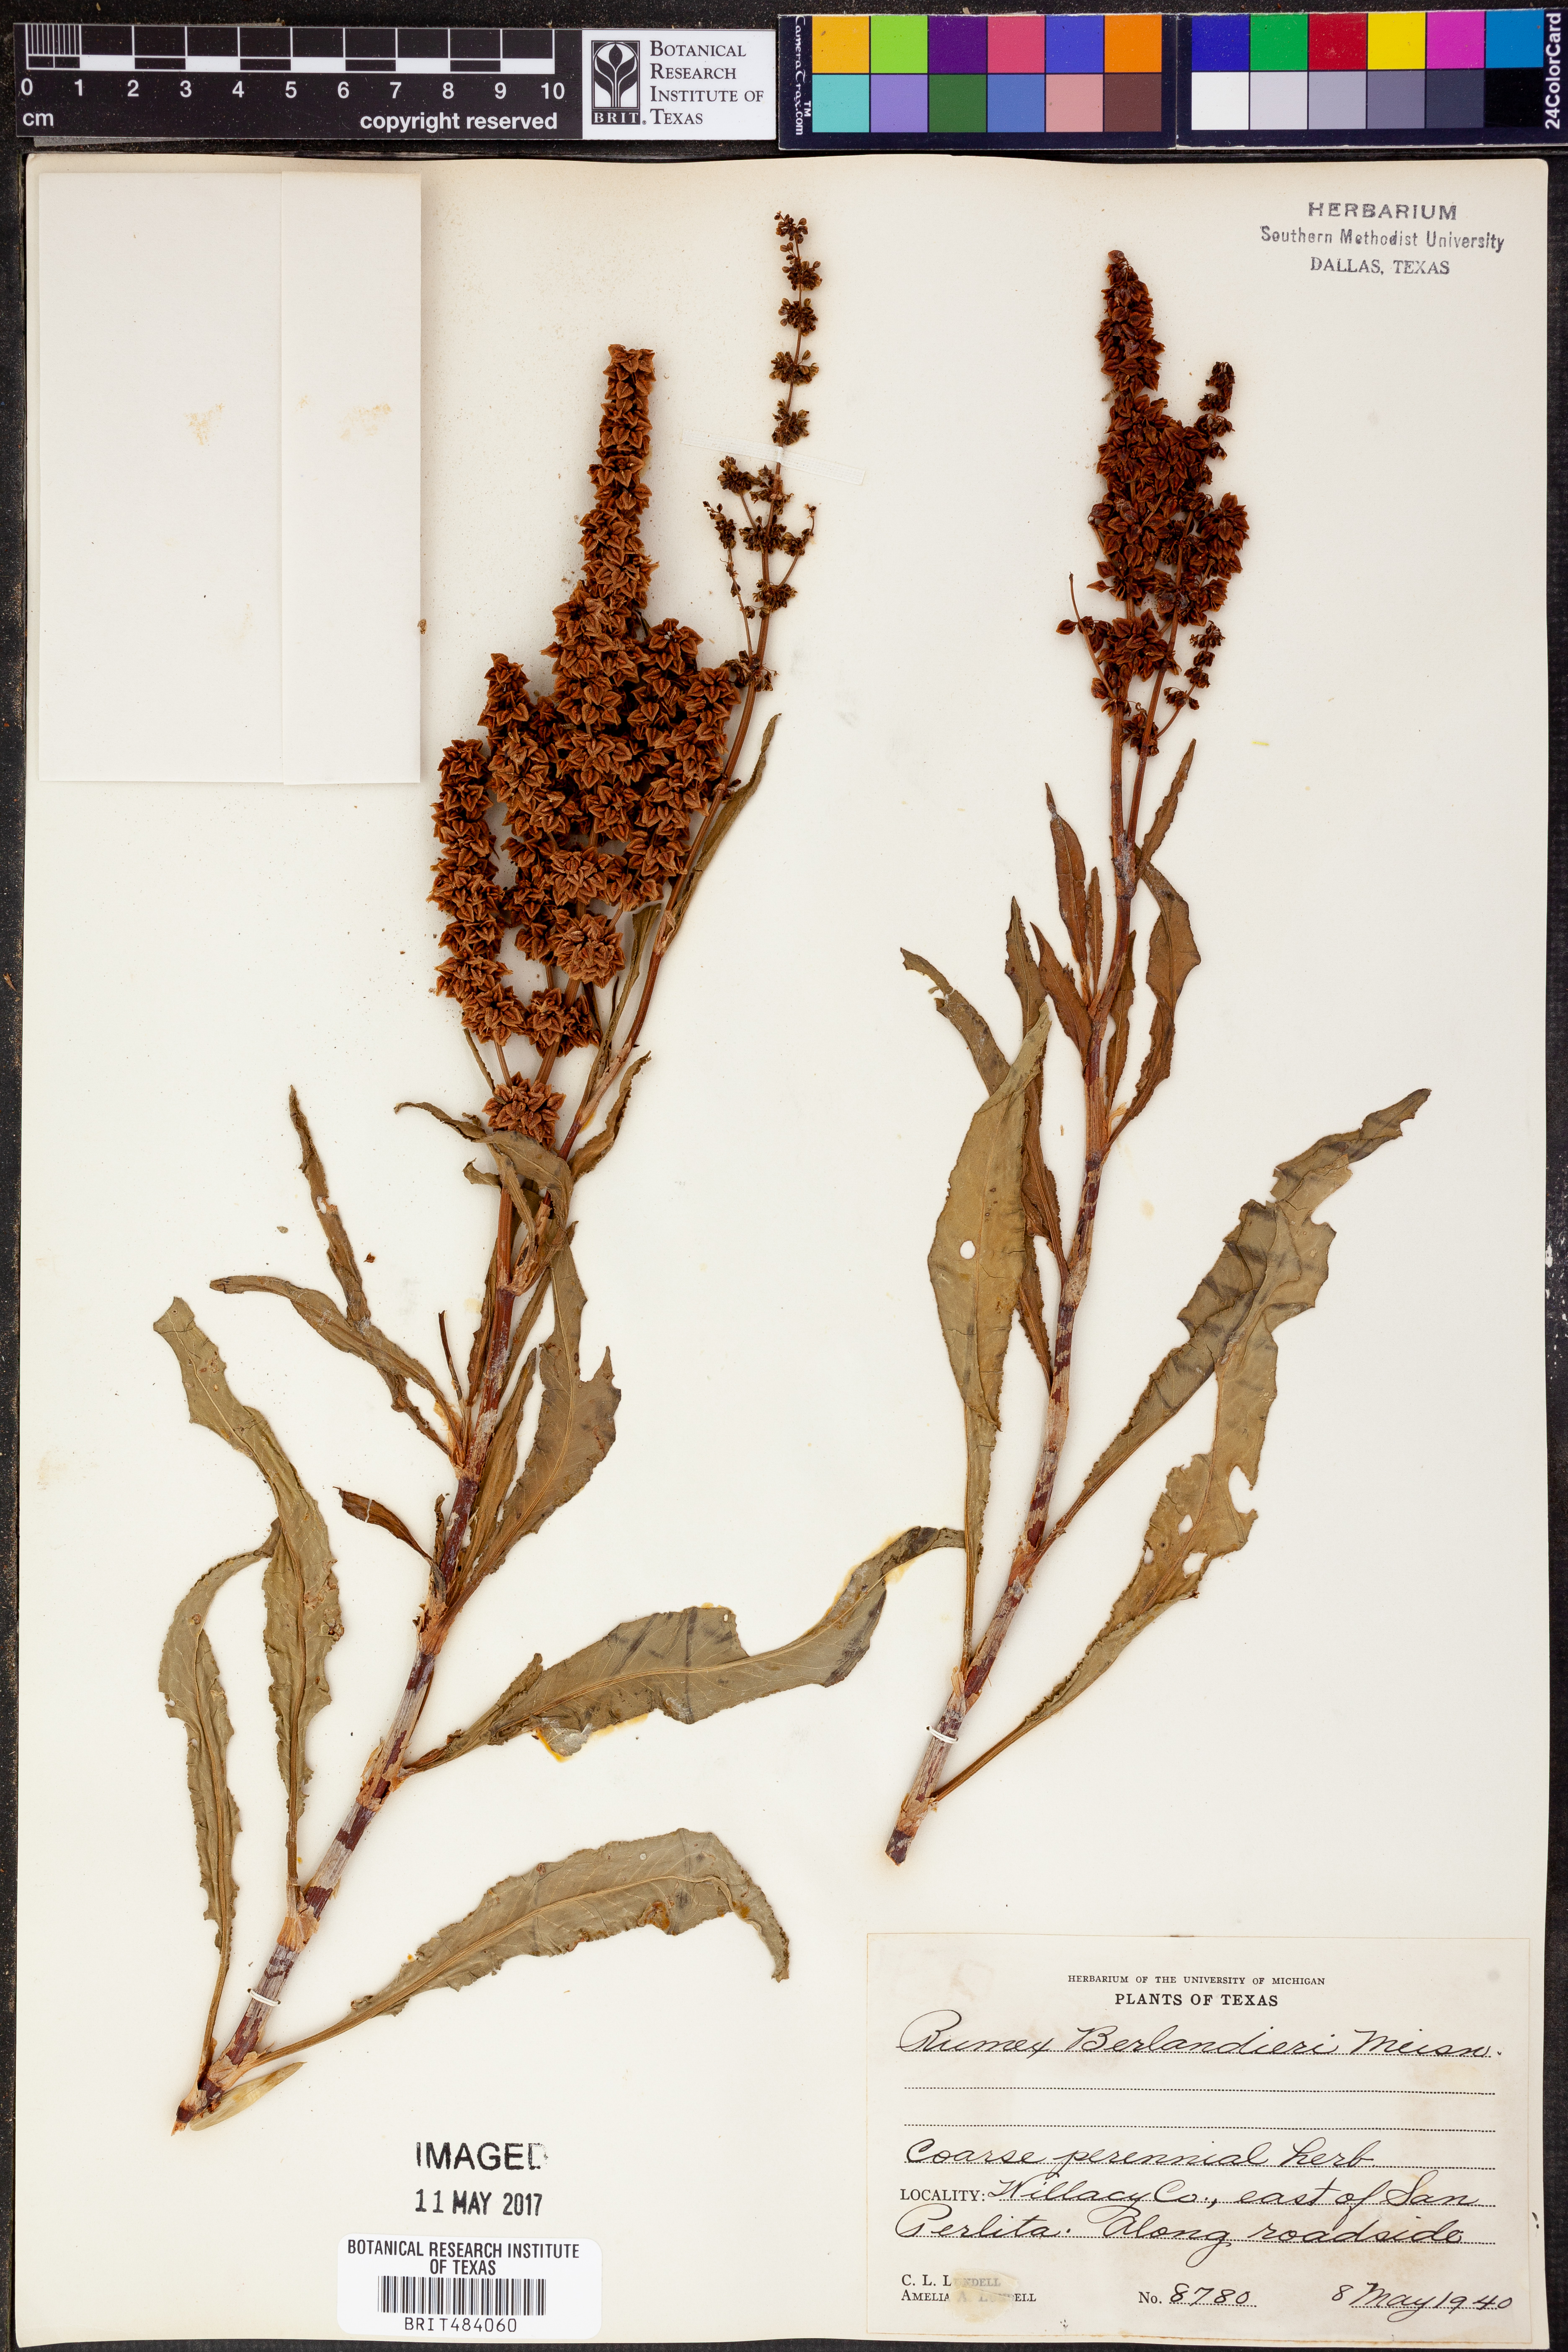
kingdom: Plantae
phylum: Tracheophyta
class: Magnoliopsida
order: Caryophyllales
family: Polygonaceae
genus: Rumex
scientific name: Rumex chrysocarpus
